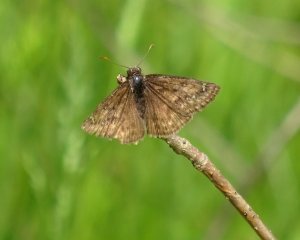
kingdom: Animalia
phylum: Arthropoda
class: Insecta
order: Lepidoptera
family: Hesperiidae
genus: Gesta
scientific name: Gesta
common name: Juvenal's Duskywing
